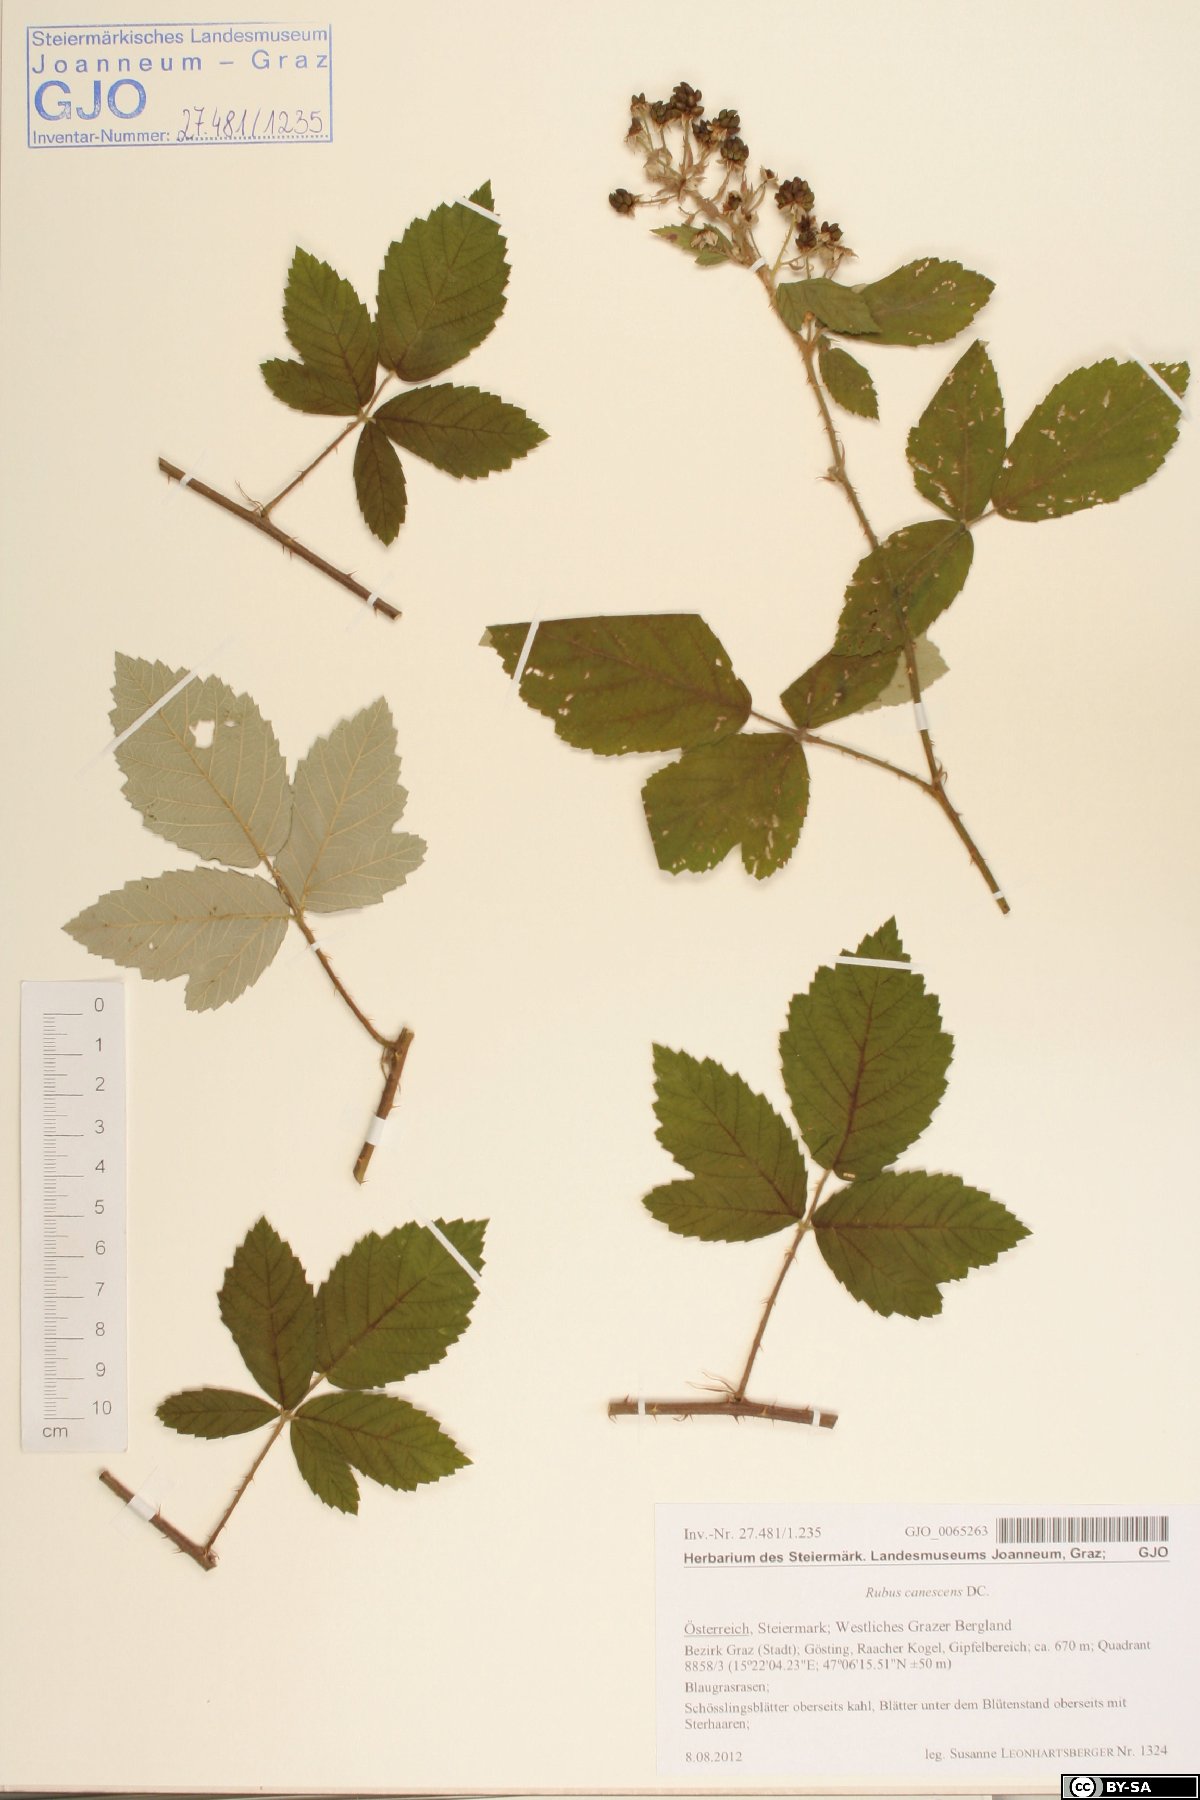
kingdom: Plantae
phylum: Tracheophyta
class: Magnoliopsida
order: Rosales
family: Rosaceae
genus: Rubus
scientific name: Rubus canescens
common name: Wooly blackberry
